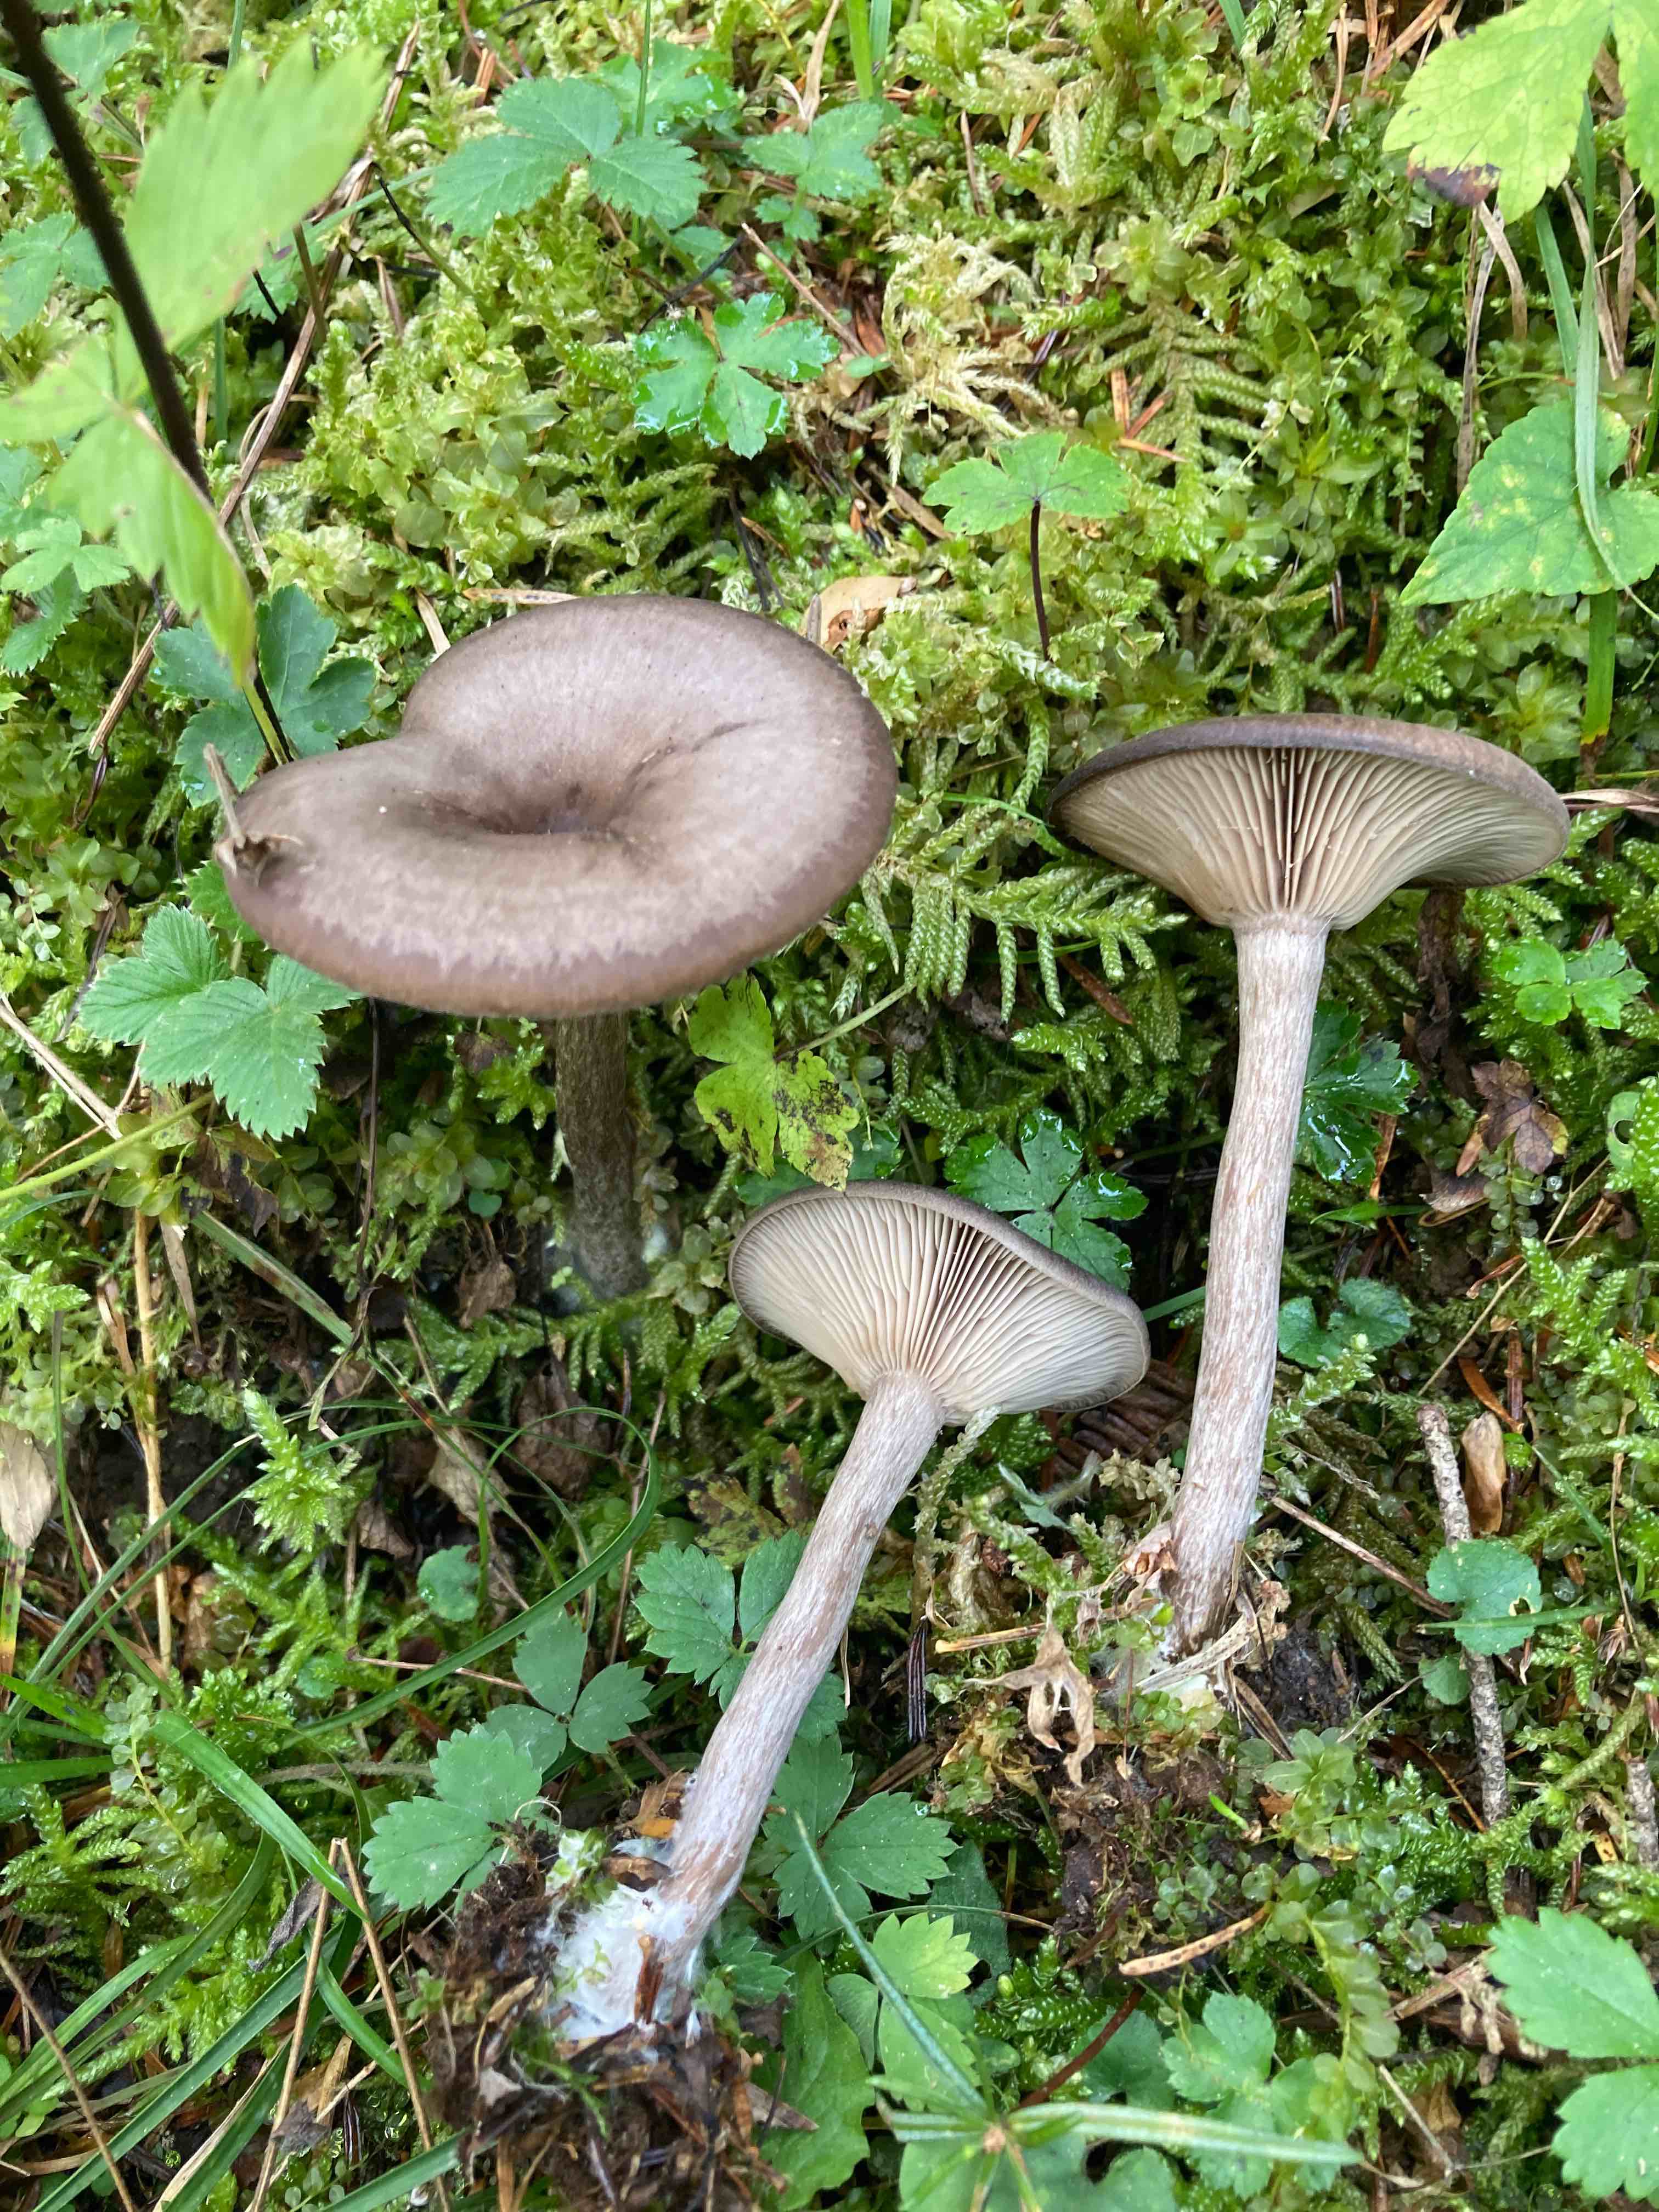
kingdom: Fungi
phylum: Basidiomycota
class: Agaricomycetes
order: Agaricales
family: Pseudoclitocybaceae
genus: Pseudoclitocybe
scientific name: Pseudoclitocybe cyathiformis
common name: almindelig bægertragthat
